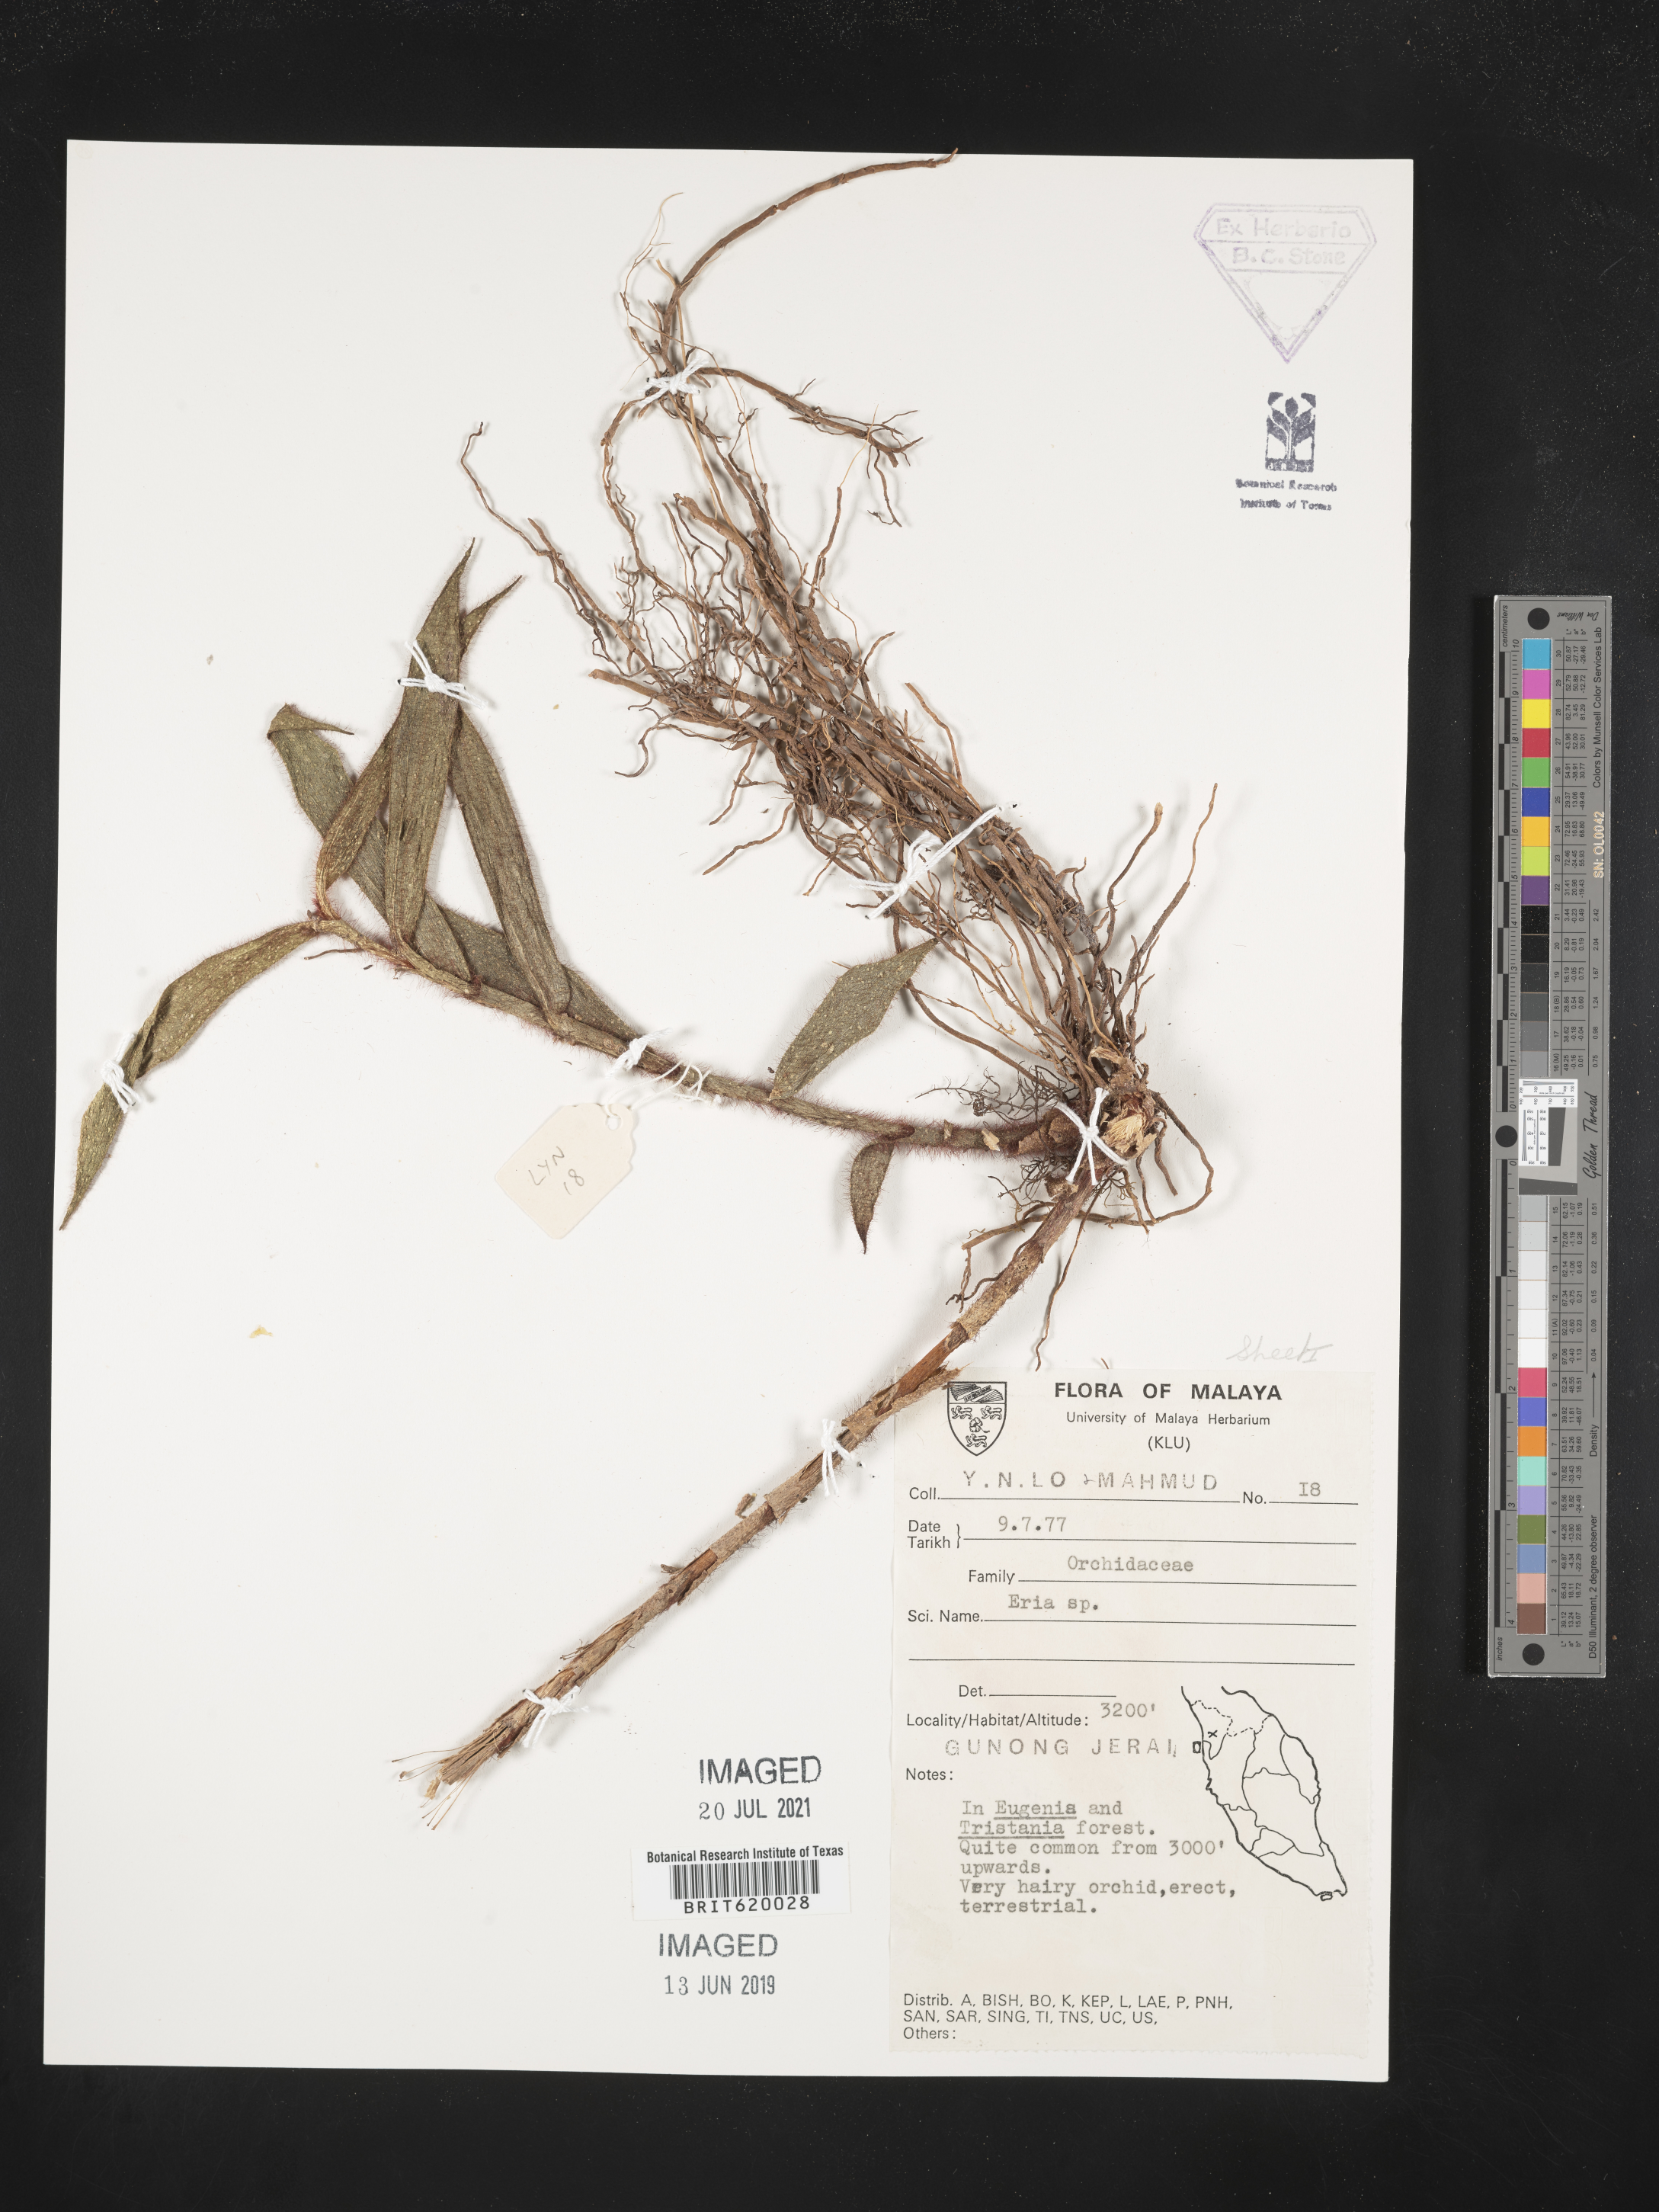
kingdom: Plantae
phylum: Tracheophyta
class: Liliopsida
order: Asparagales
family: Orchidaceae
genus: Eria
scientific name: Eria
